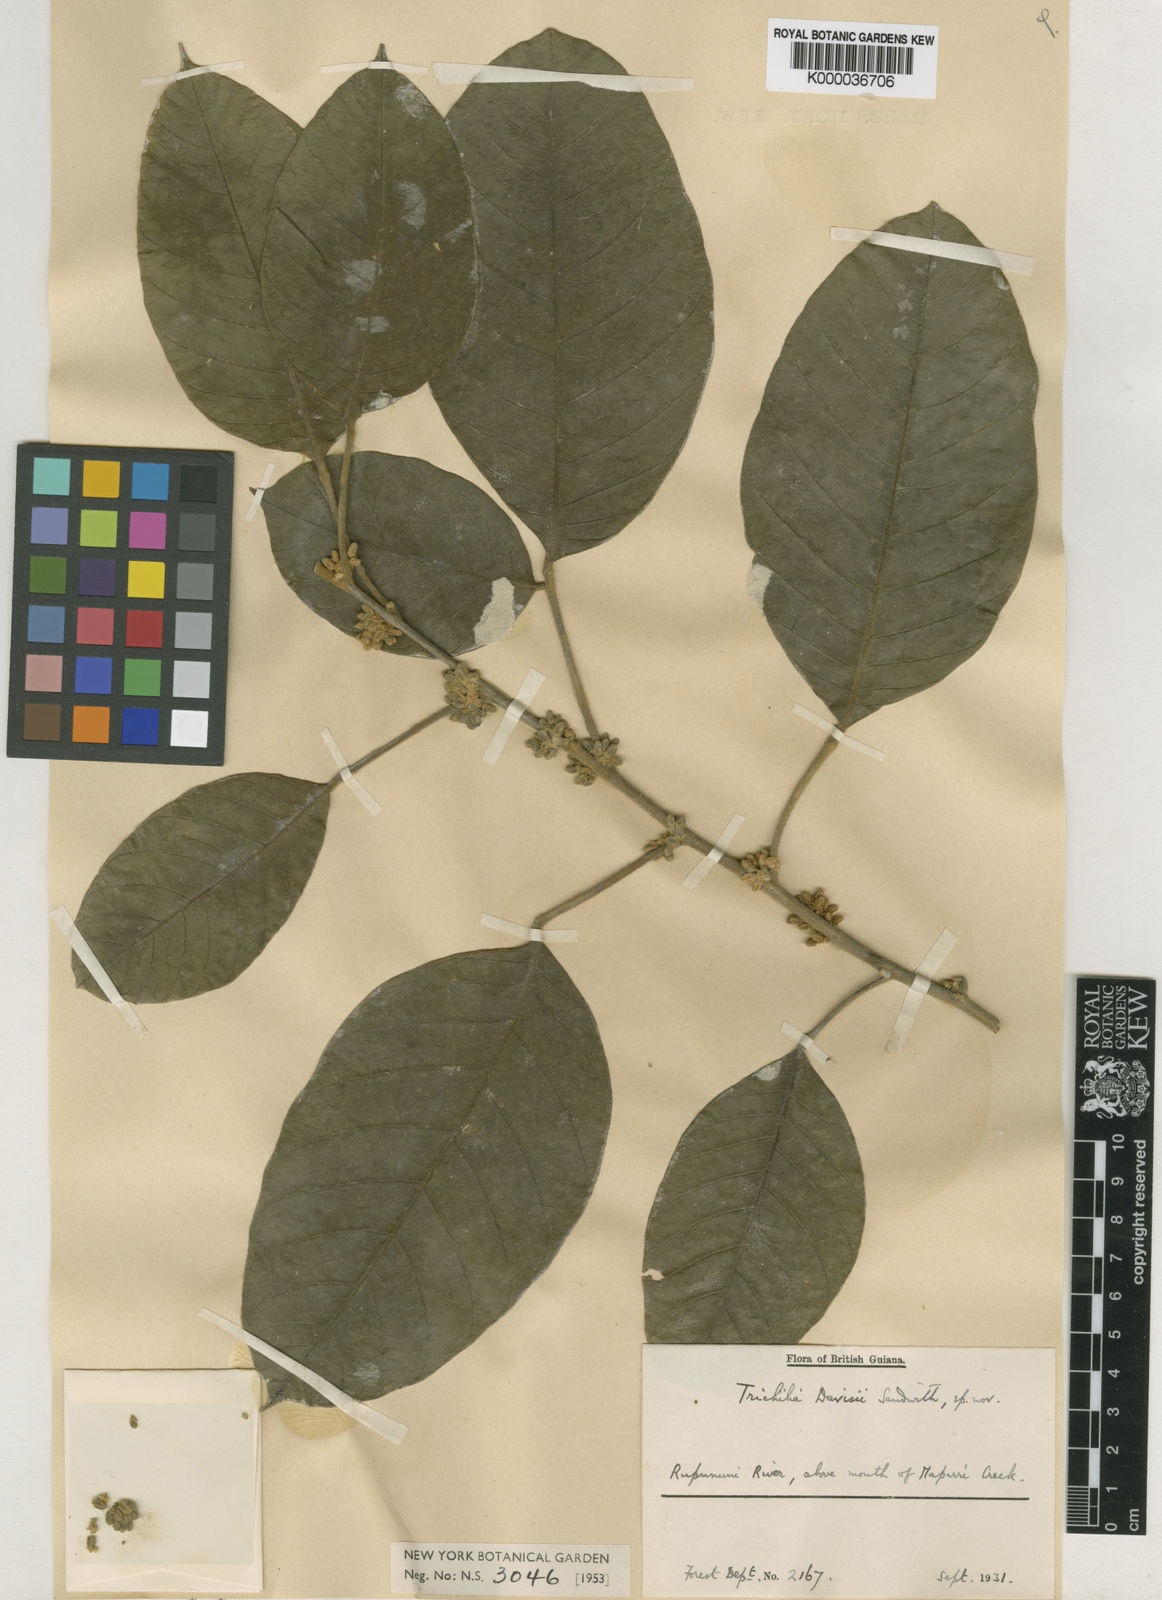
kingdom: Plantae
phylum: Tracheophyta
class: Magnoliopsida
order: Sapindales
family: Meliaceae
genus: Trichilia
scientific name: Trichilia pallida
